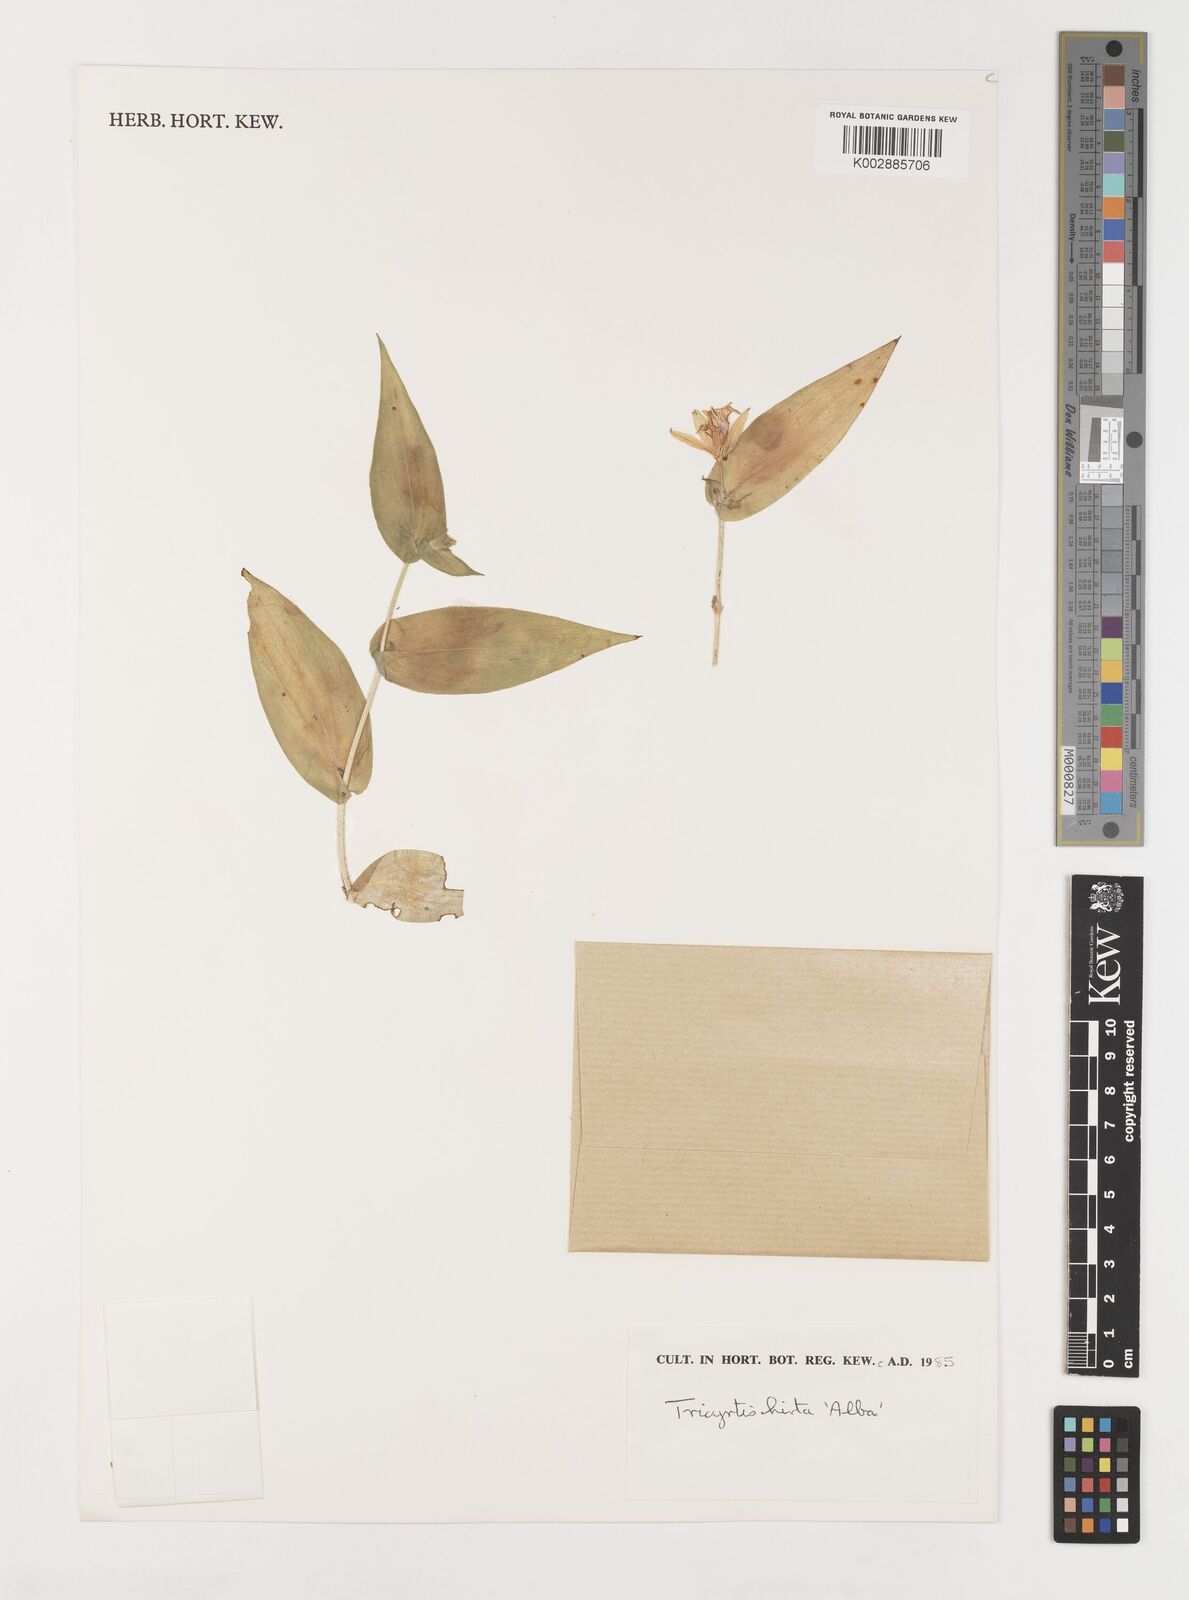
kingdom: Plantae
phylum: Tracheophyta
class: Liliopsida
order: Liliales
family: Liliaceae
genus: Tricyrtis
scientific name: Tricyrtis hirta
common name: Toadlily
